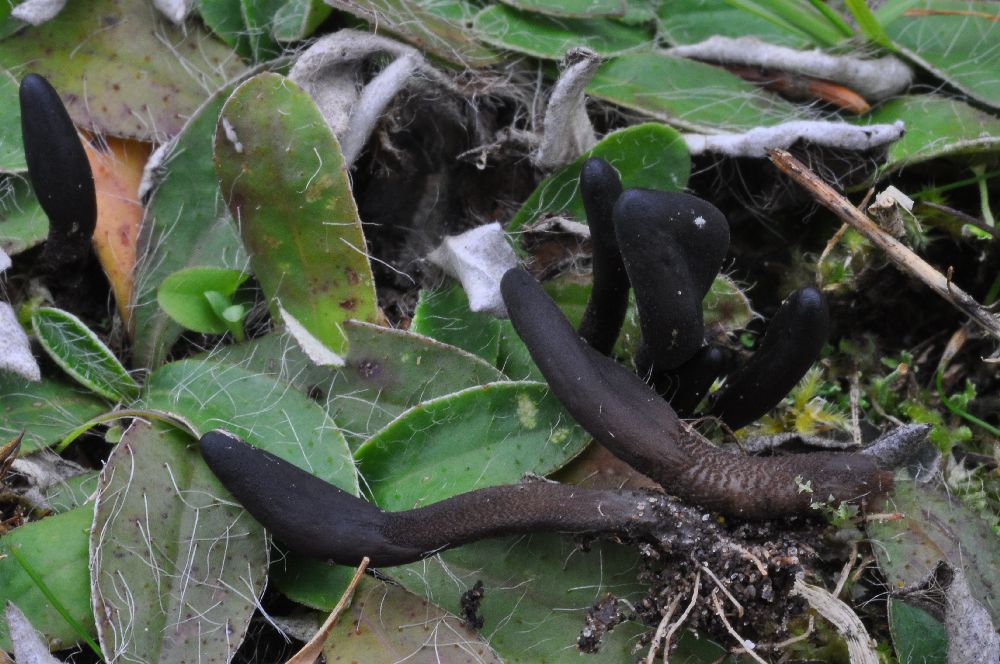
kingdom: Fungi
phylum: Ascomycota
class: Geoglossomycetes
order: Geoglossales
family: Geoglossaceae
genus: Hemileucoglossum
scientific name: Hemileucoglossum elongatum
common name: småsporet jordtunge
